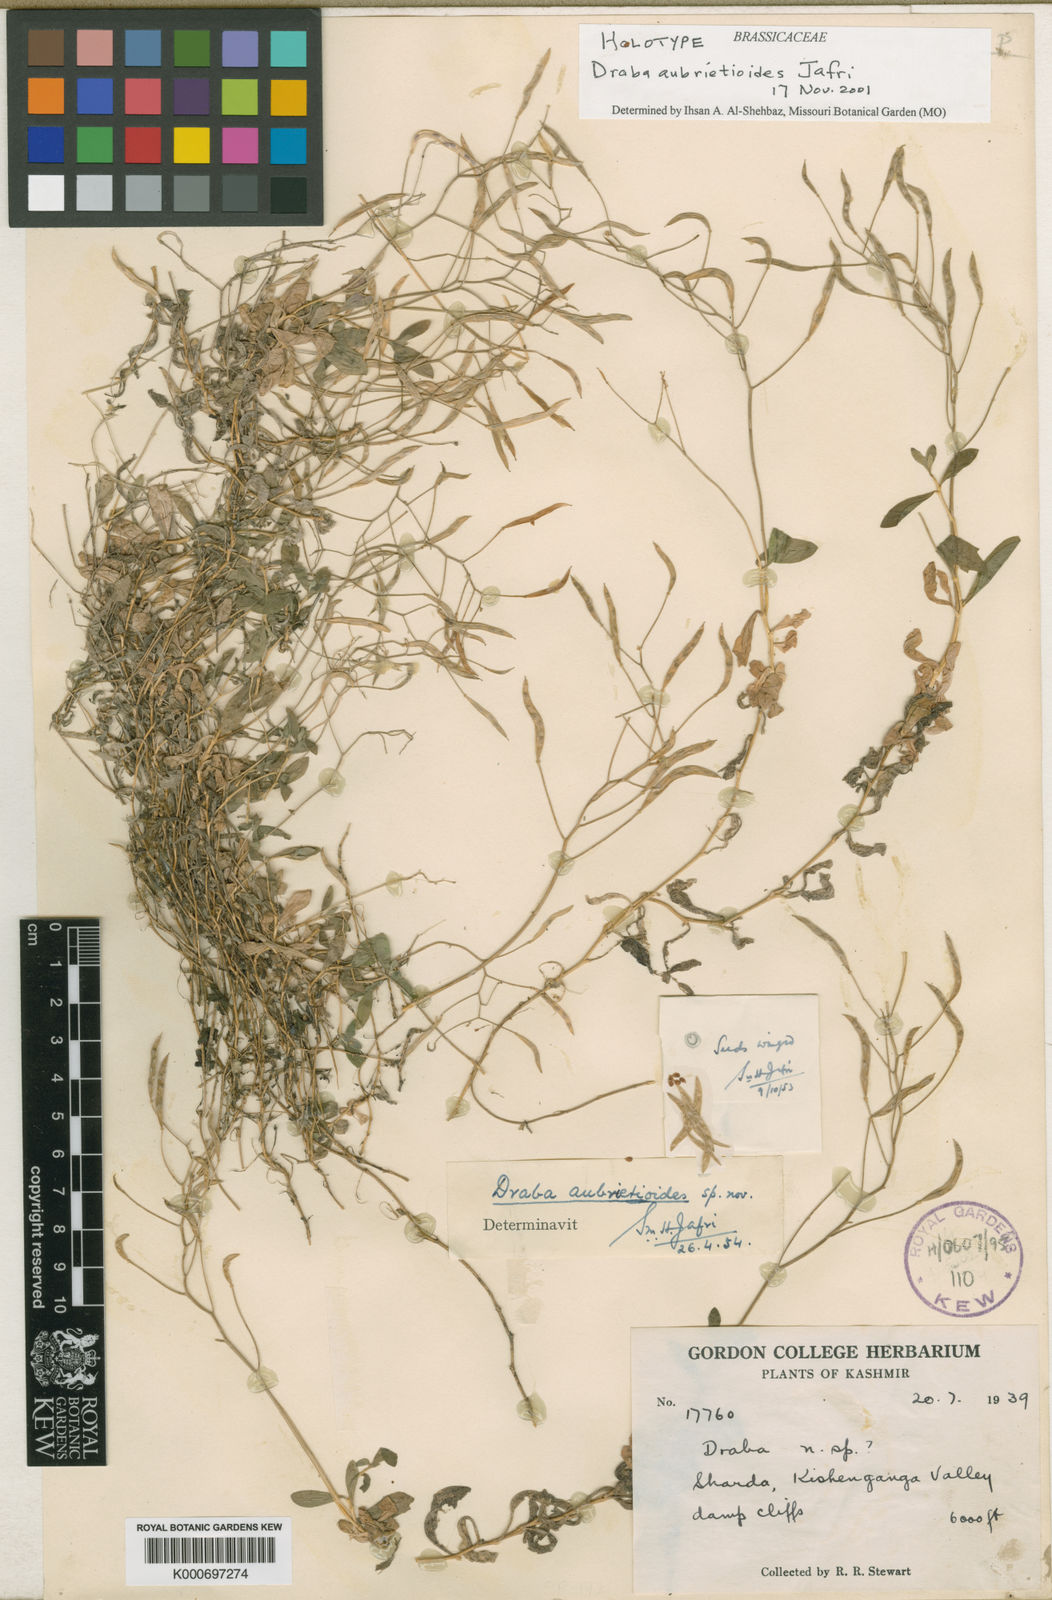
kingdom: Plantae
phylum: Tracheophyta
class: Magnoliopsida
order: Brassicales
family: Brassicaceae
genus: Draba
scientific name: Draba aubrietioides
